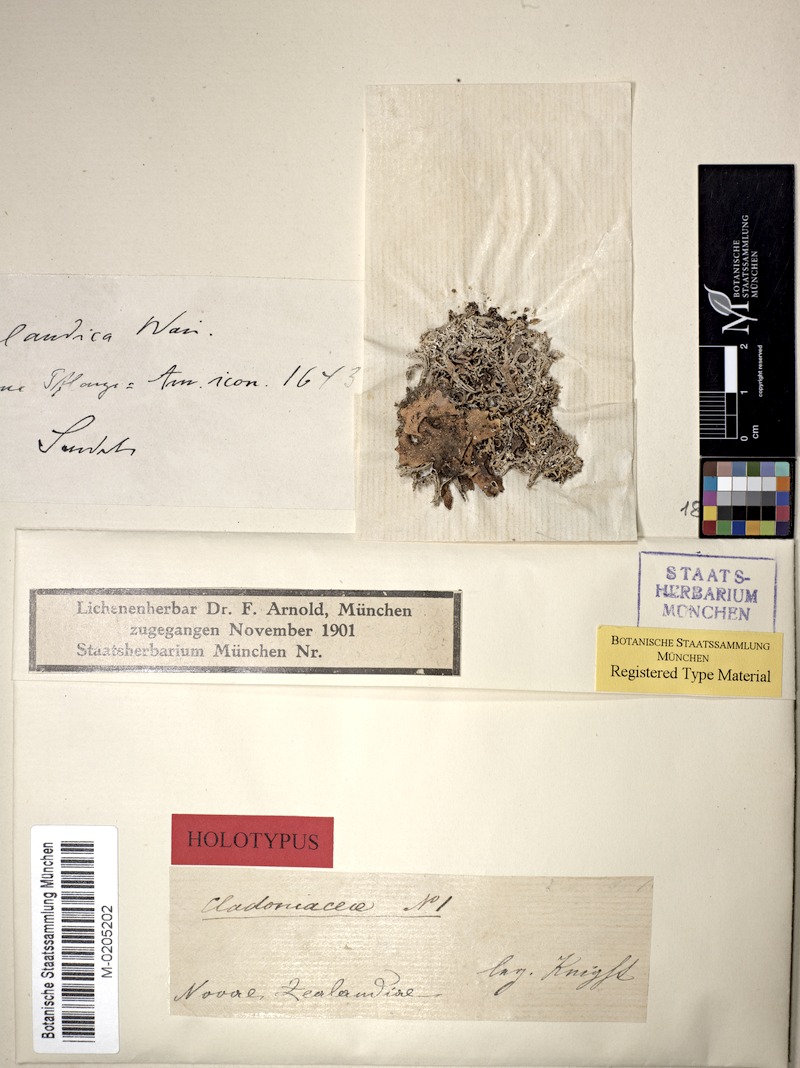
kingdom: Fungi
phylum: Ascomycota
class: Lecanoromycetes
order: Lecanorales
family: Cladoniaceae
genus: Cladonia
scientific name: Cladonia neozelandica
